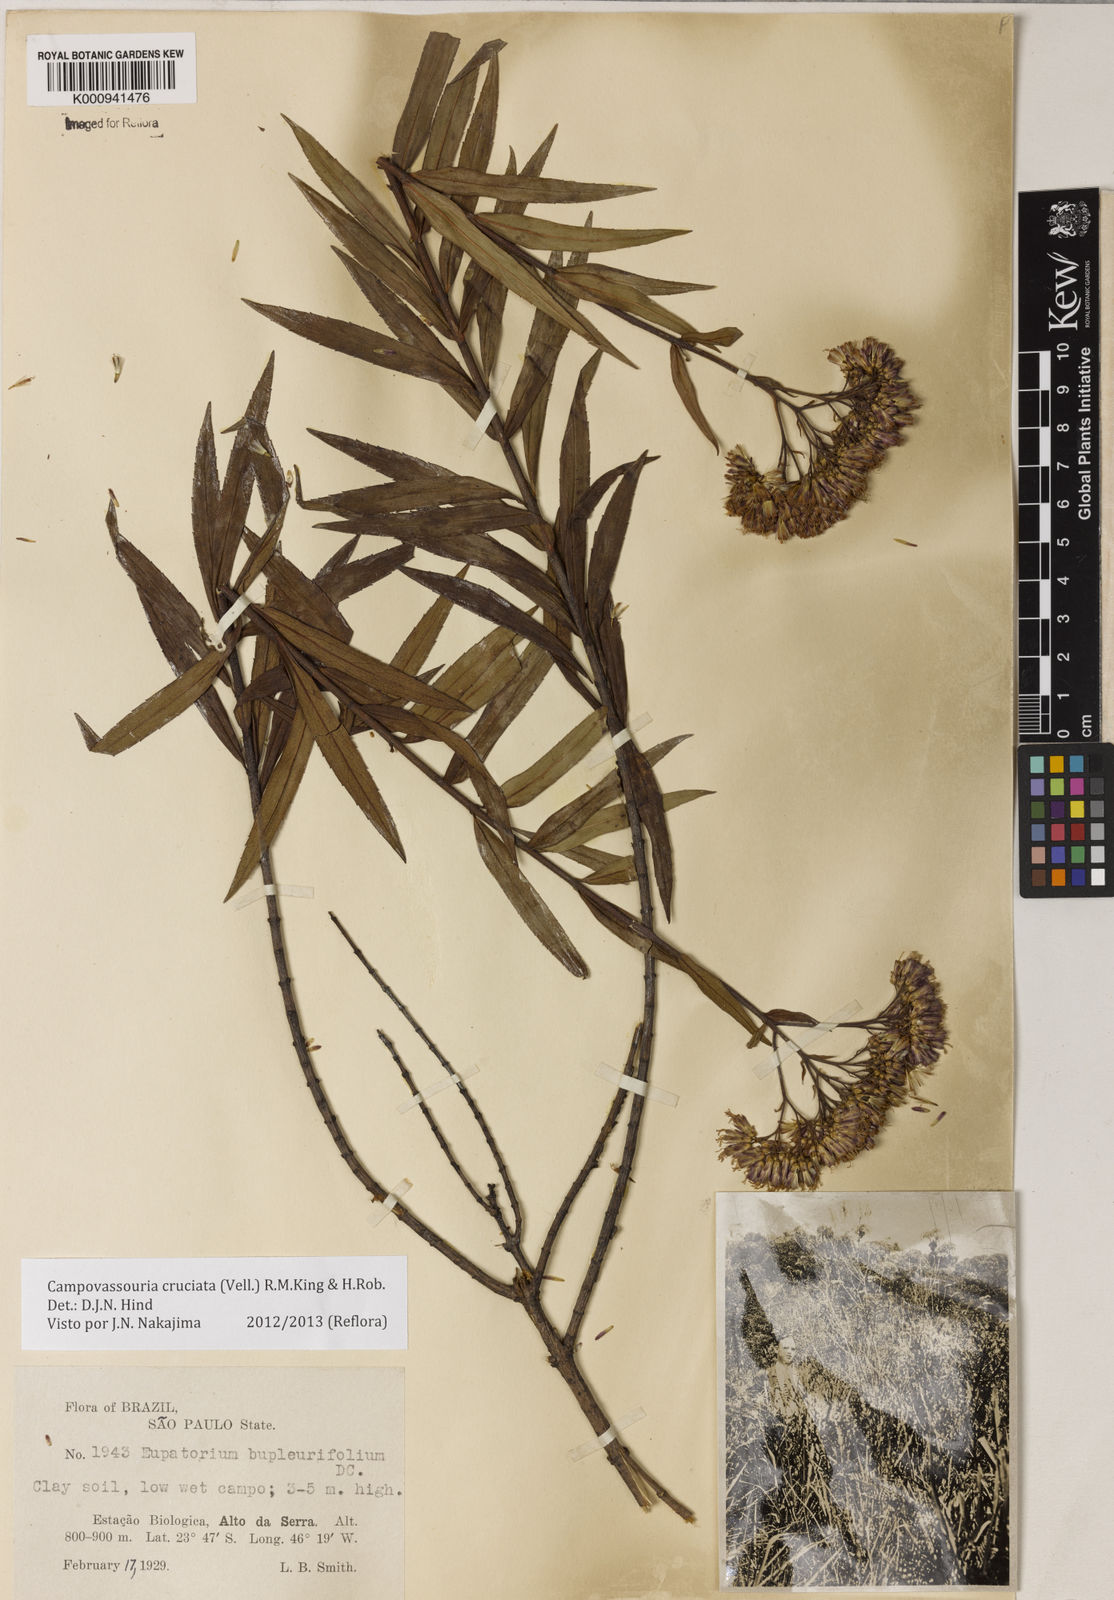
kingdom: Plantae
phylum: Tracheophyta
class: Magnoliopsida
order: Asterales
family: Asteraceae
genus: Campovassouria
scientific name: Campovassouria cruciata
